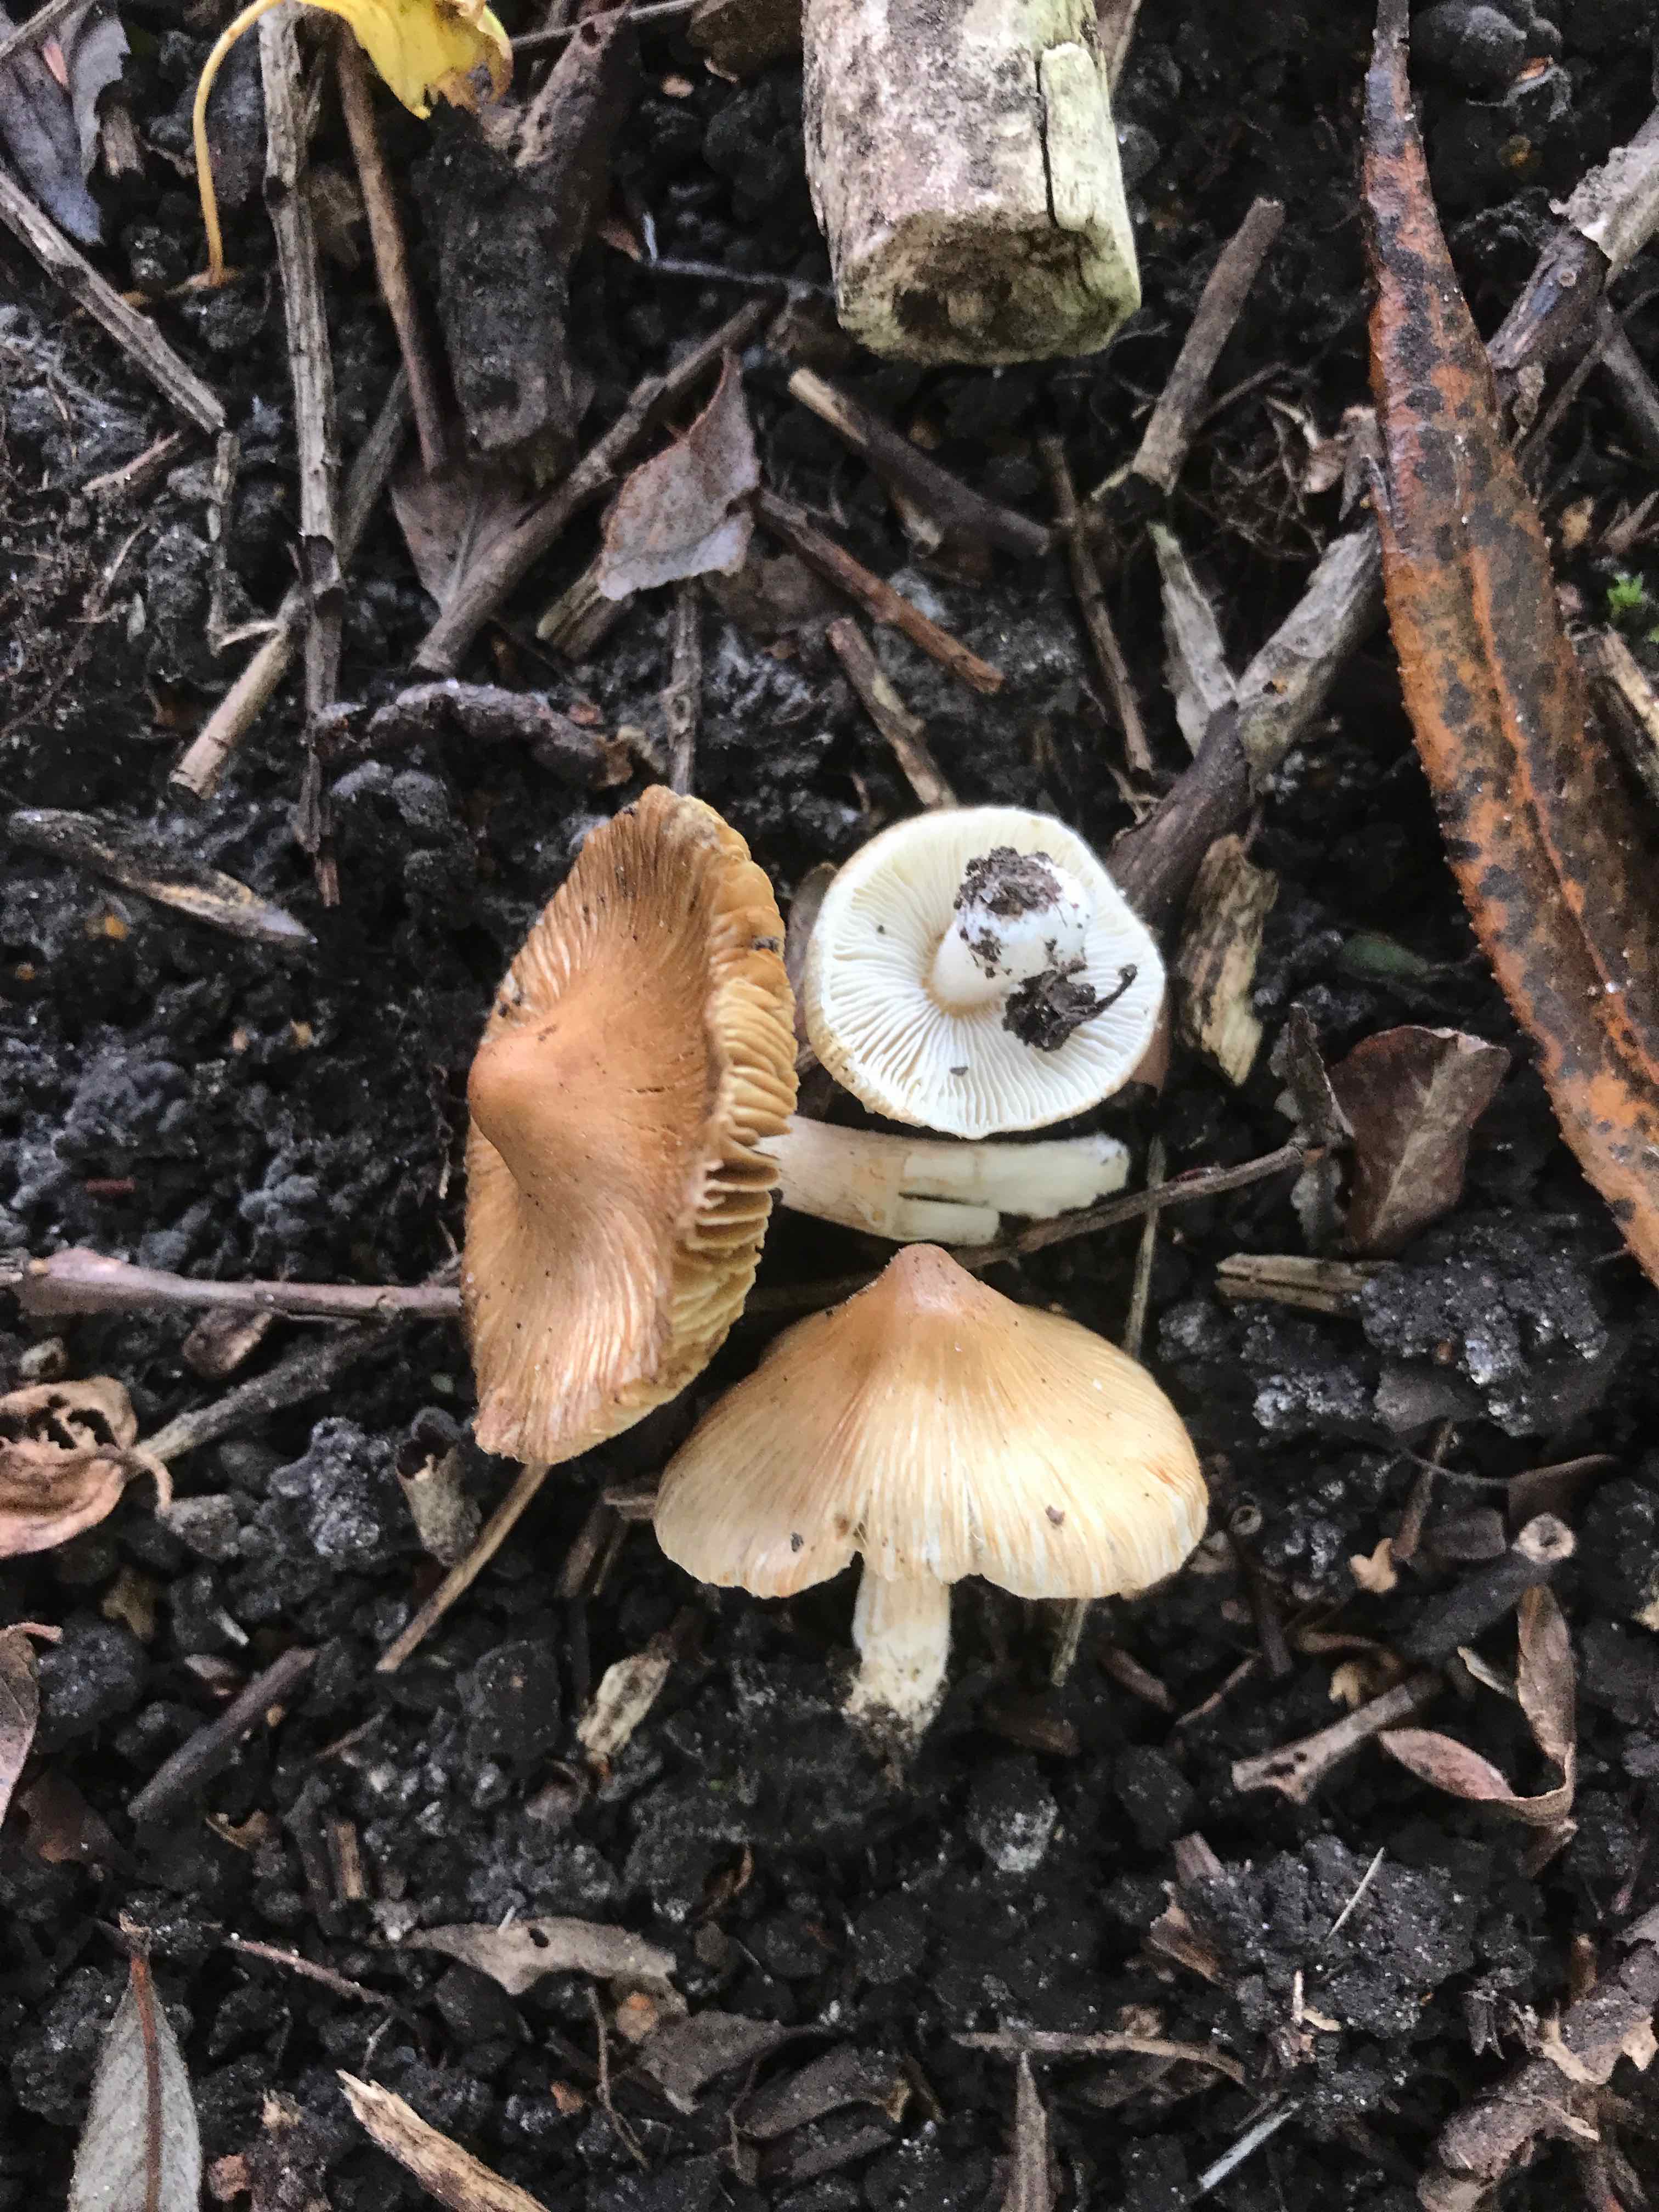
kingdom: Fungi
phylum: Basidiomycota
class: Agaricomycetes
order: Agaricales
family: Inocybaceae
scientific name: Inocybaceae
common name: trævlhatfamilien
